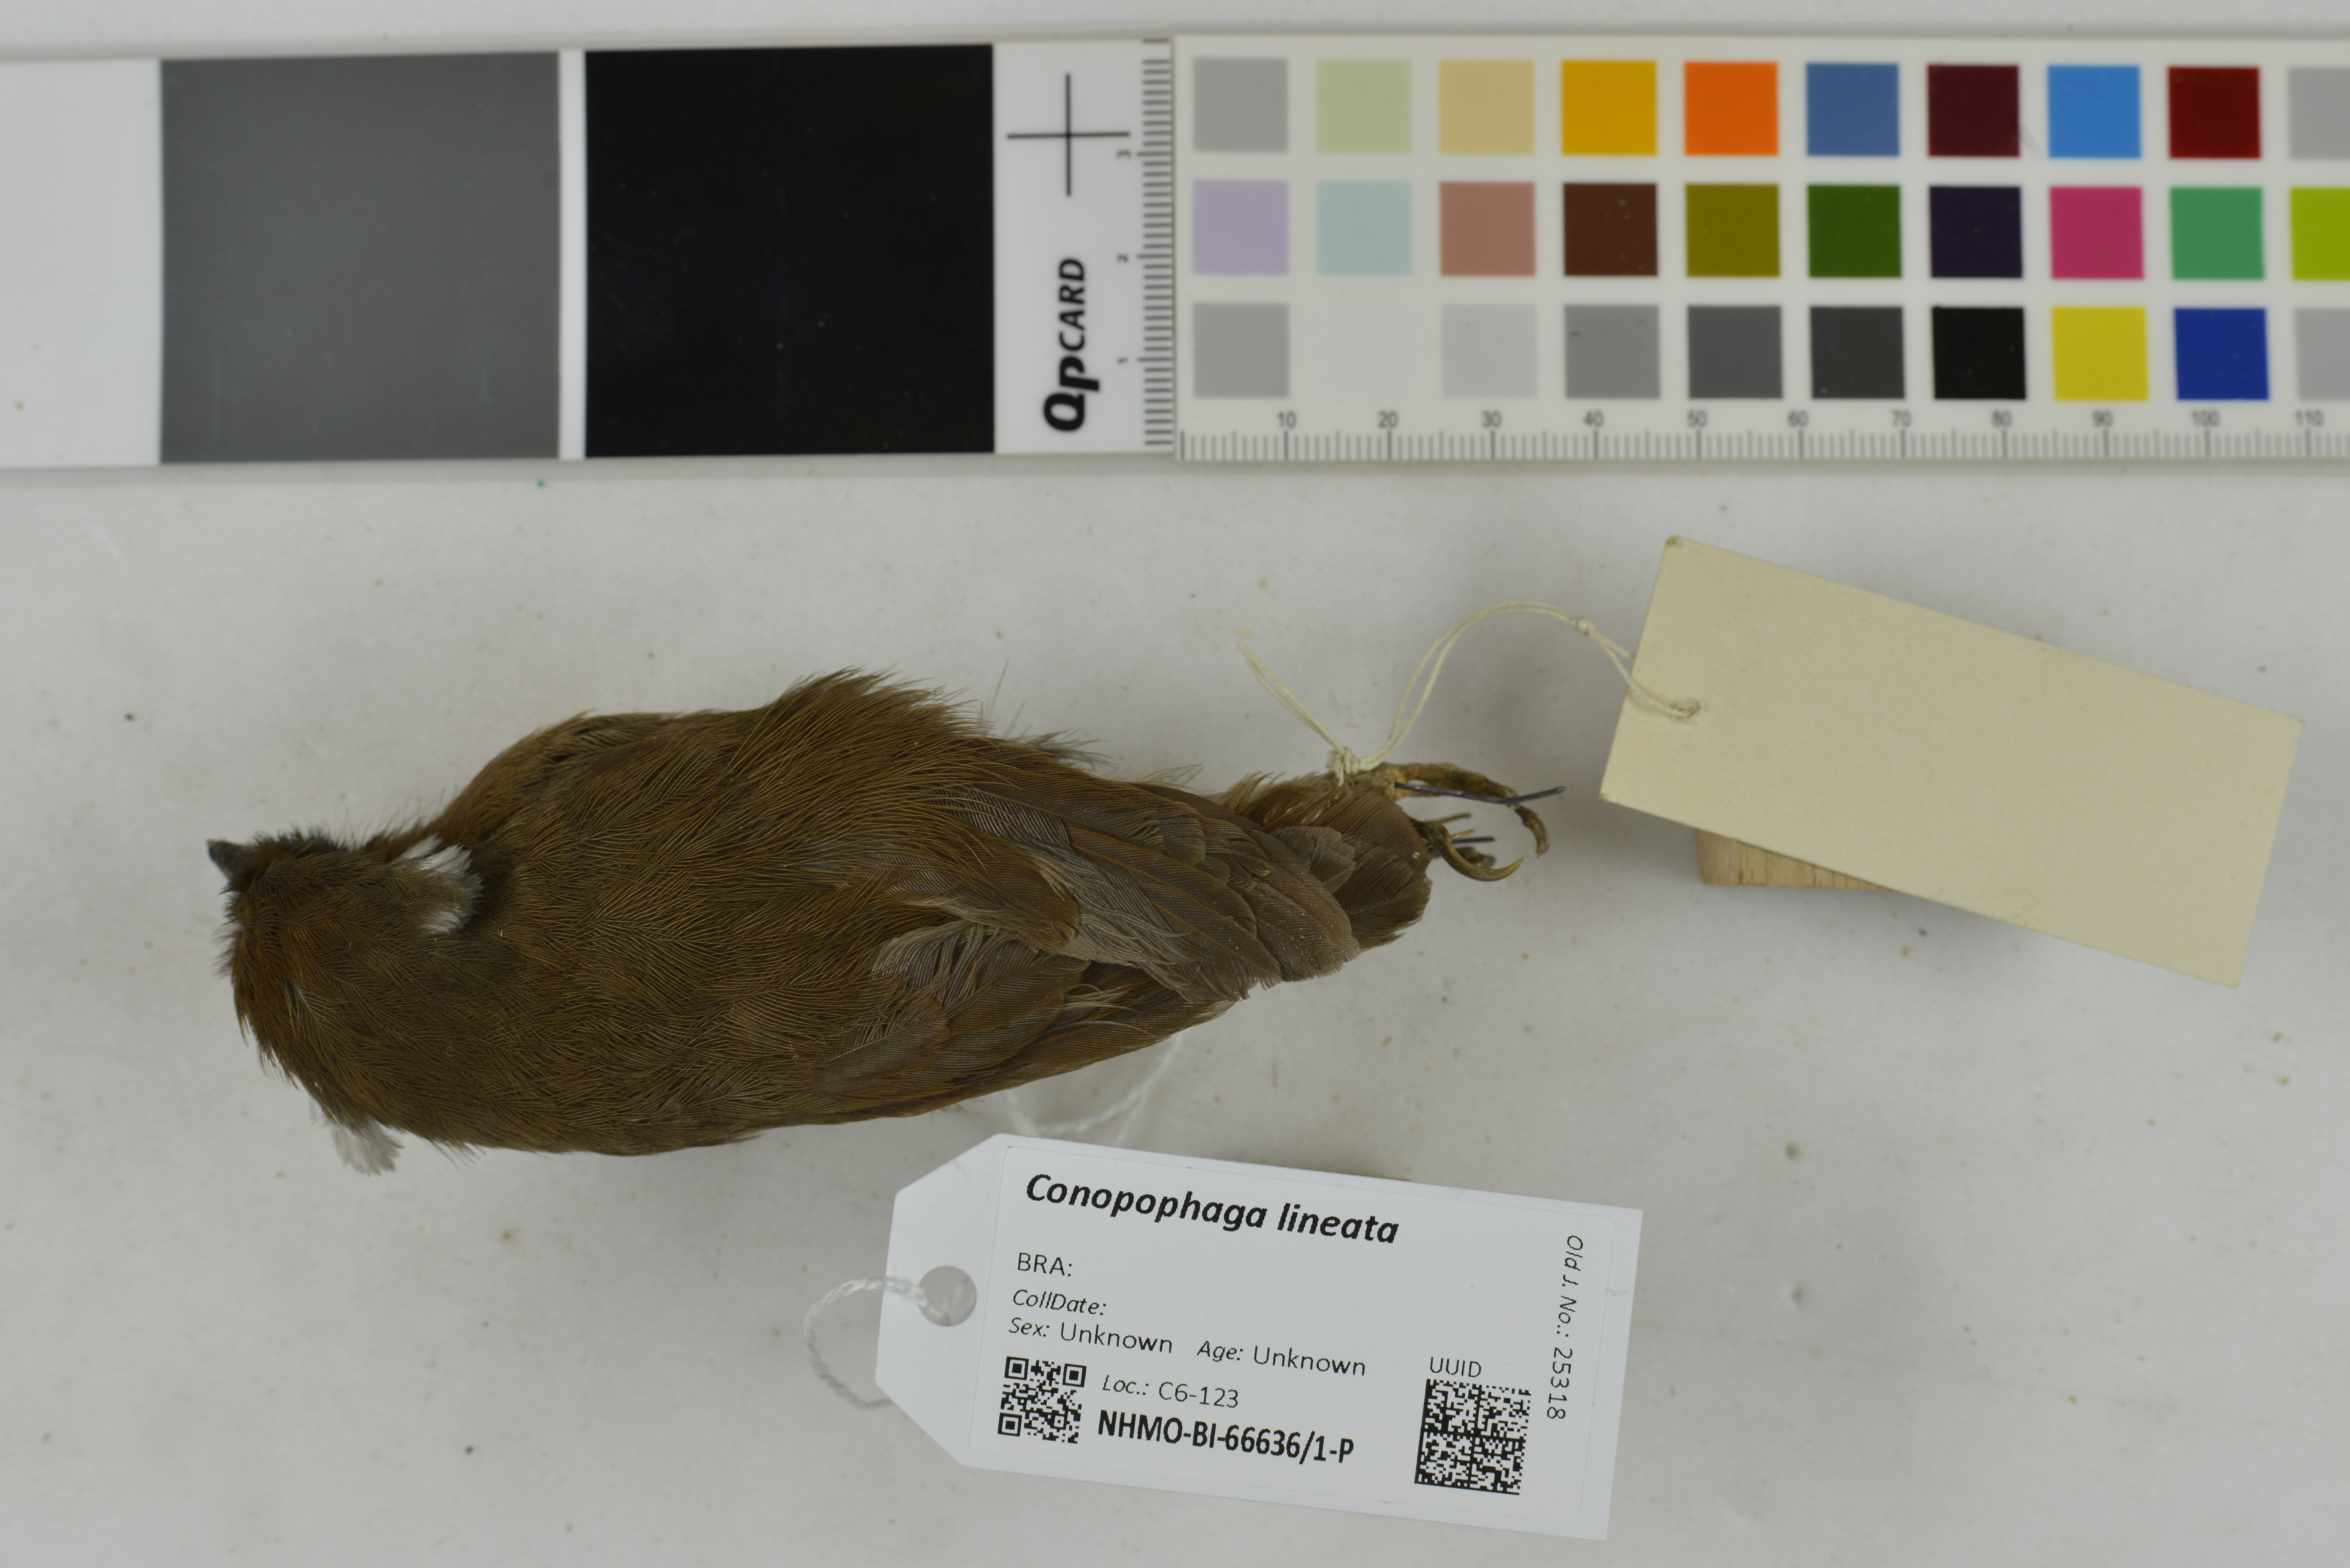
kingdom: Animalia
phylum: Chordata
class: Aves
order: Passeriformes
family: Conopophagidae
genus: Conopophaga
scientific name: Conopophaga lineata
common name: Rufous gnateater
